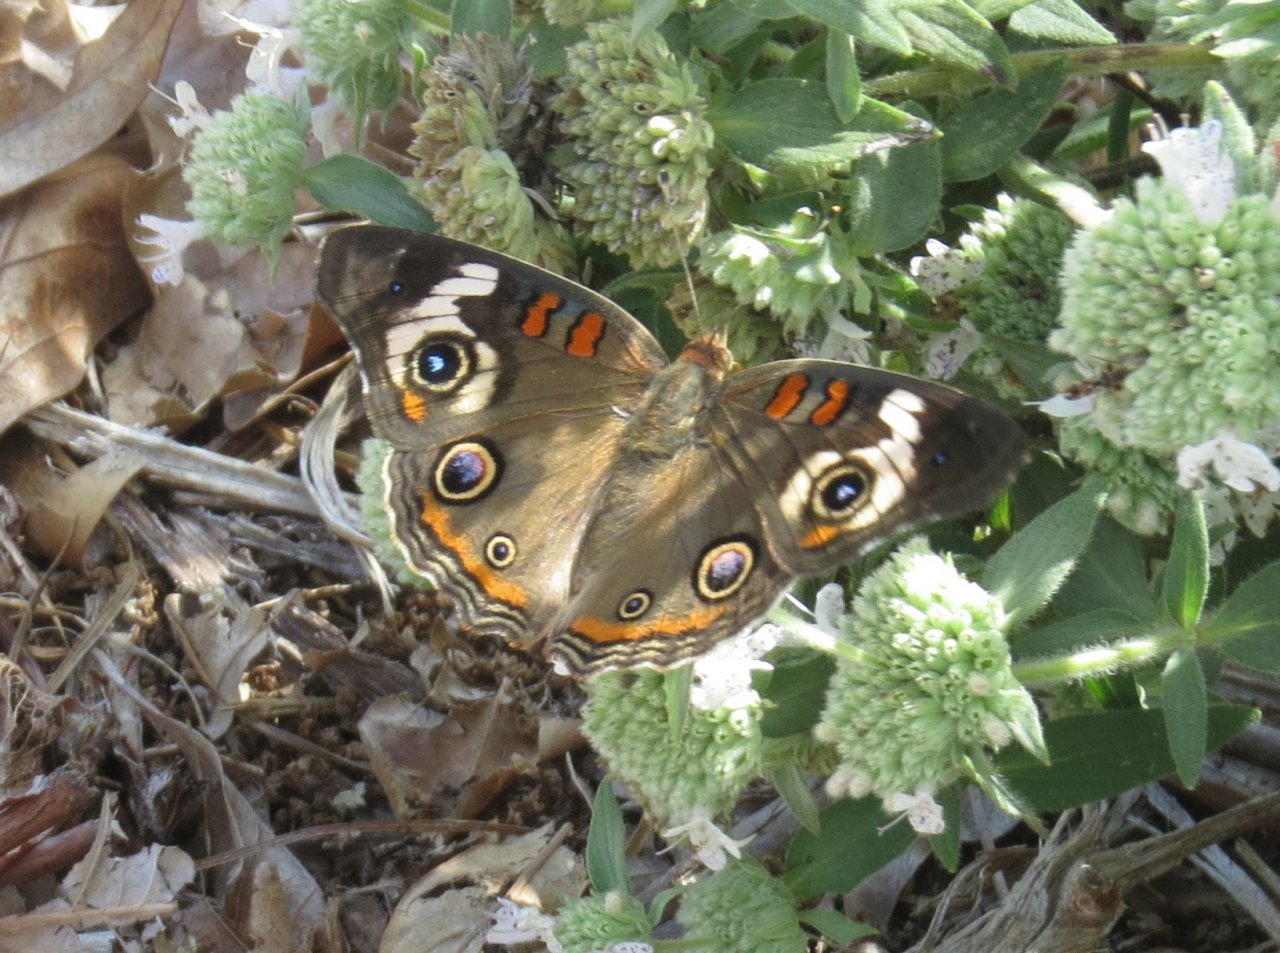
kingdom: Animalia
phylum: Arthropoda
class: Insecta
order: Lepidoptera
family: Nymphalidae
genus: Junonia
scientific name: Junonia coenia
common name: Common Buckeye
